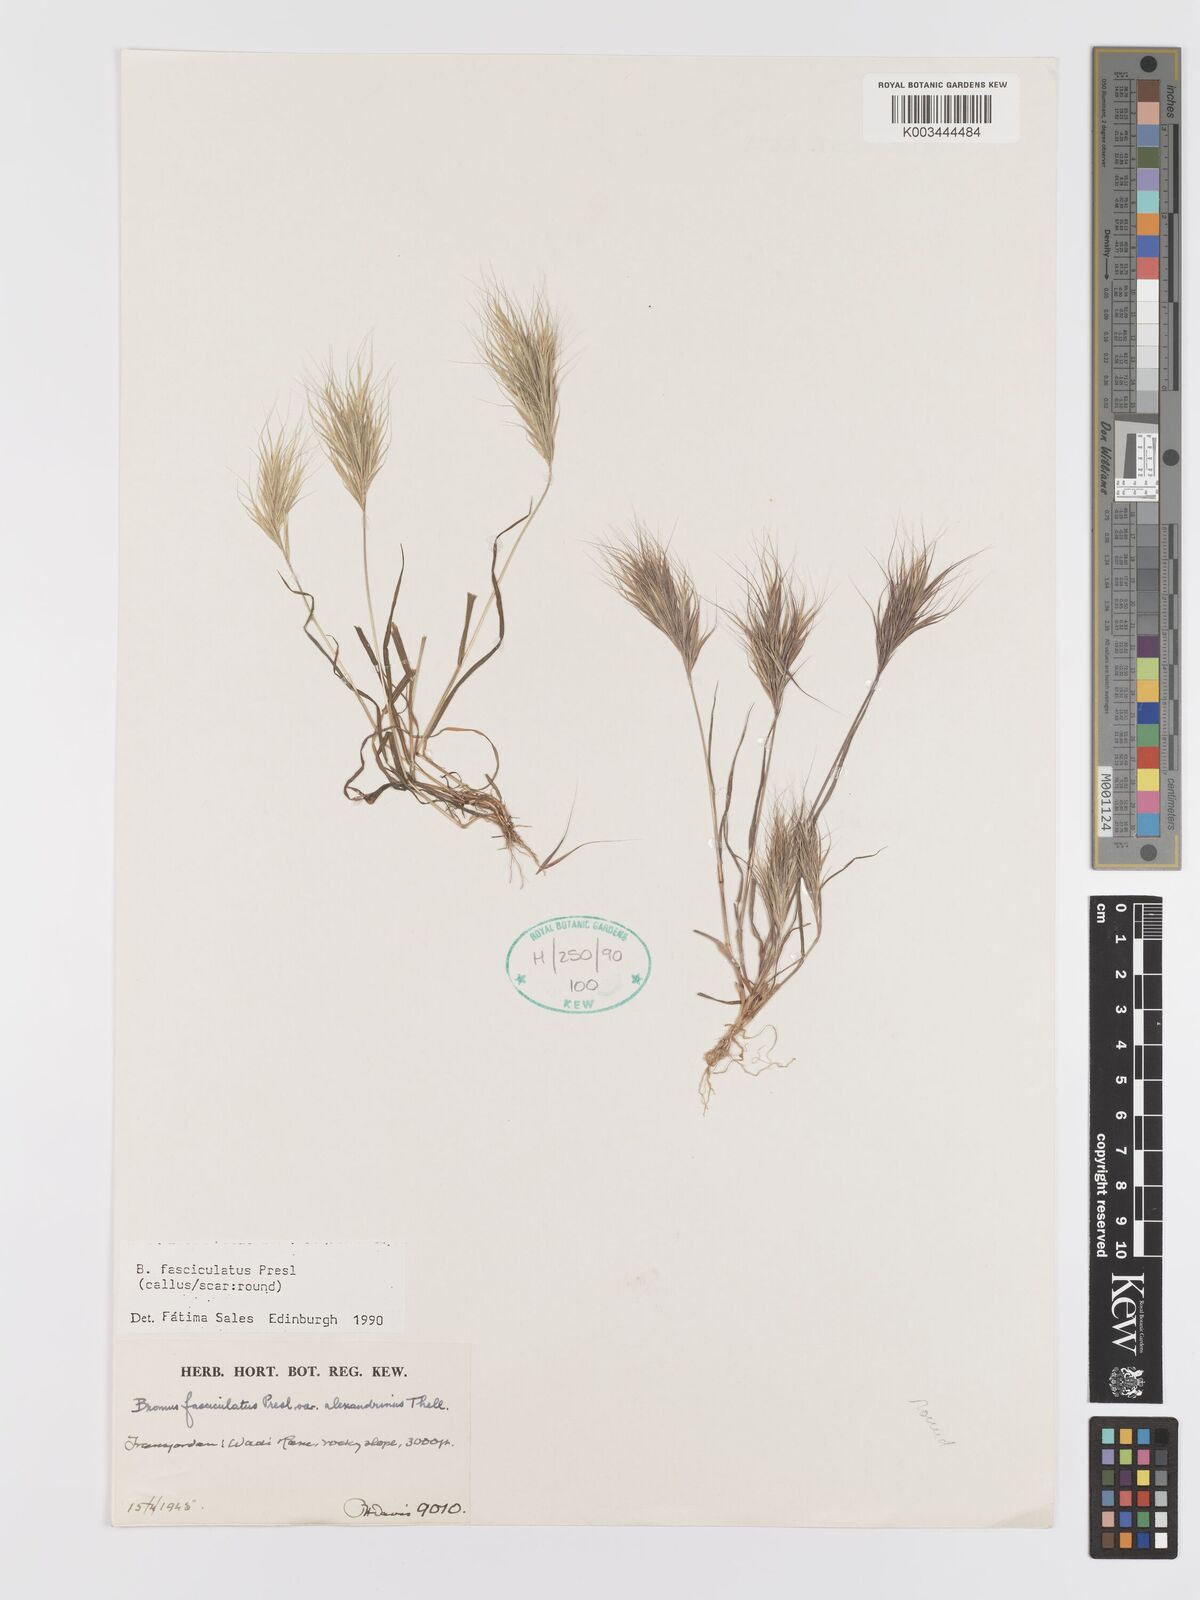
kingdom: Plantae
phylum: Tracheophyta
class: Liliopsida
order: Poales
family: Poaceae
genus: Bromus
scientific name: Bromus fasciculatus
